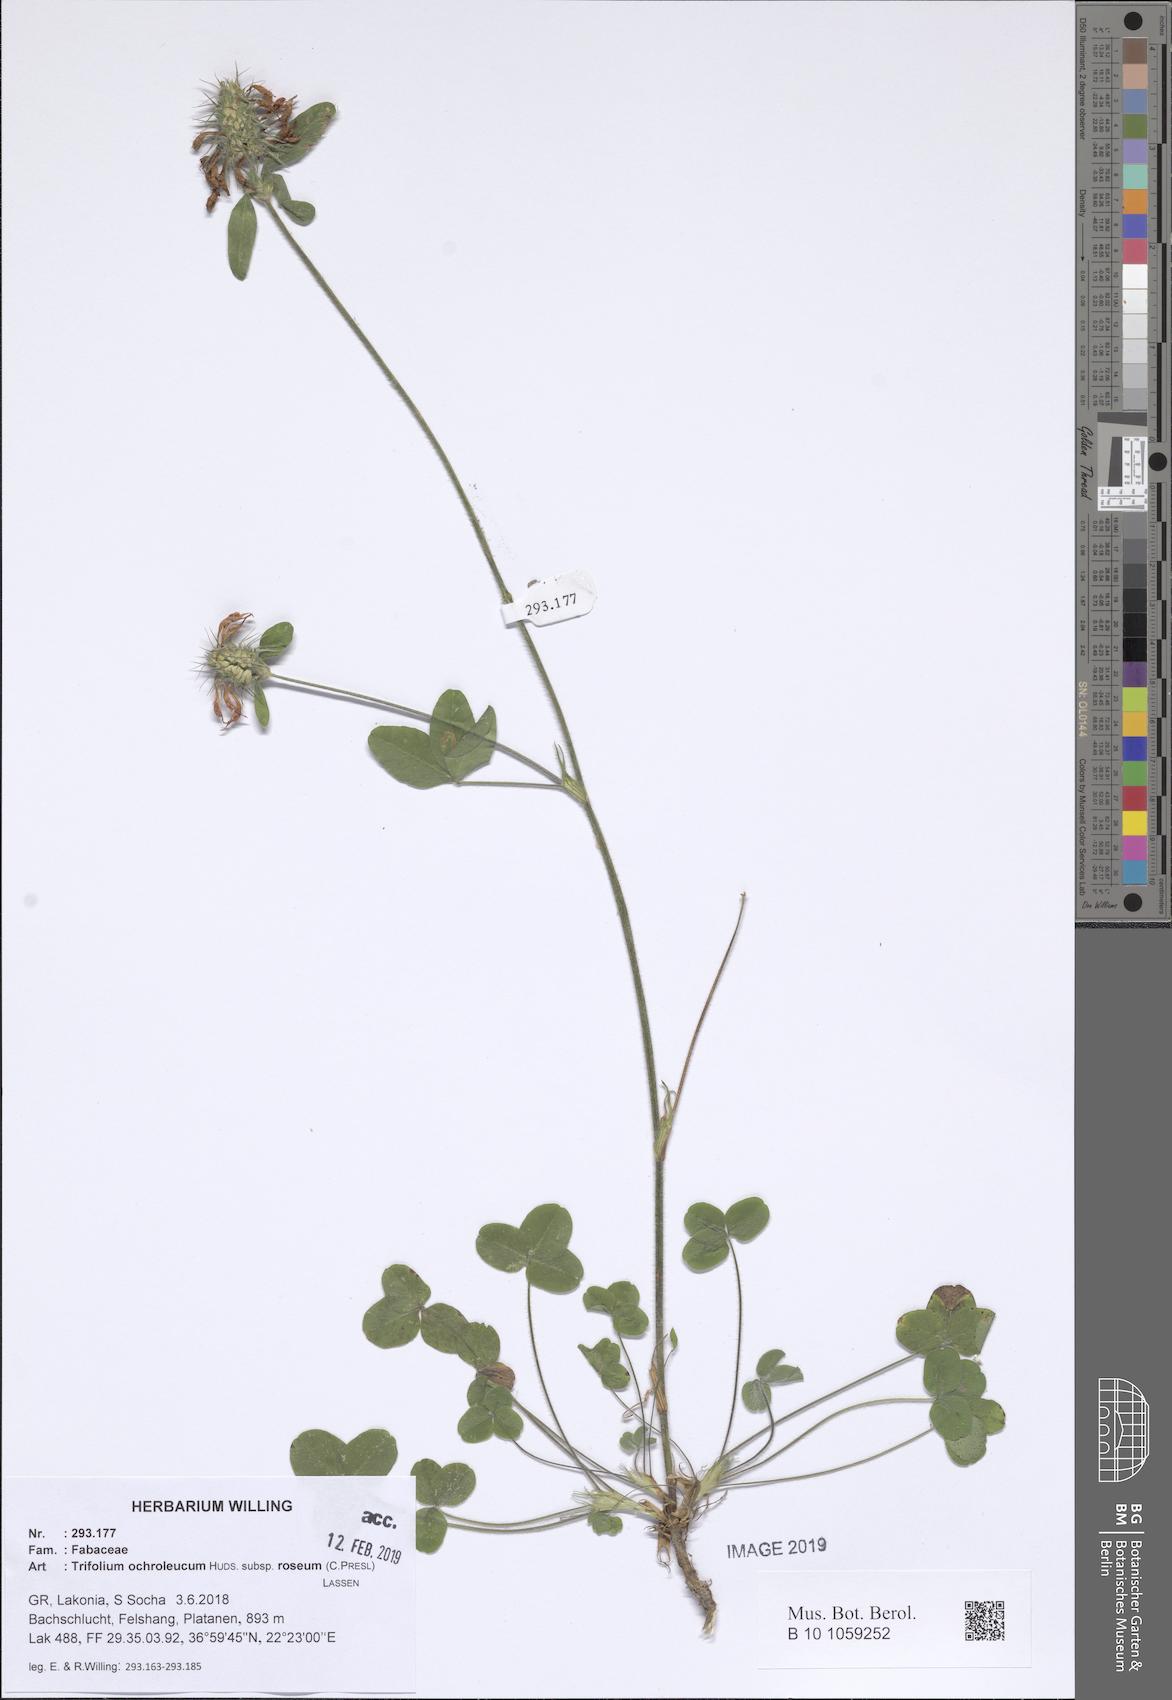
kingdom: Plantae
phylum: Tracheophyta
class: Magnoliopsida
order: Fabales
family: Fabaceae
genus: Trifolium
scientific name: Trifolium ochroleucon
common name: Sulphur clover
